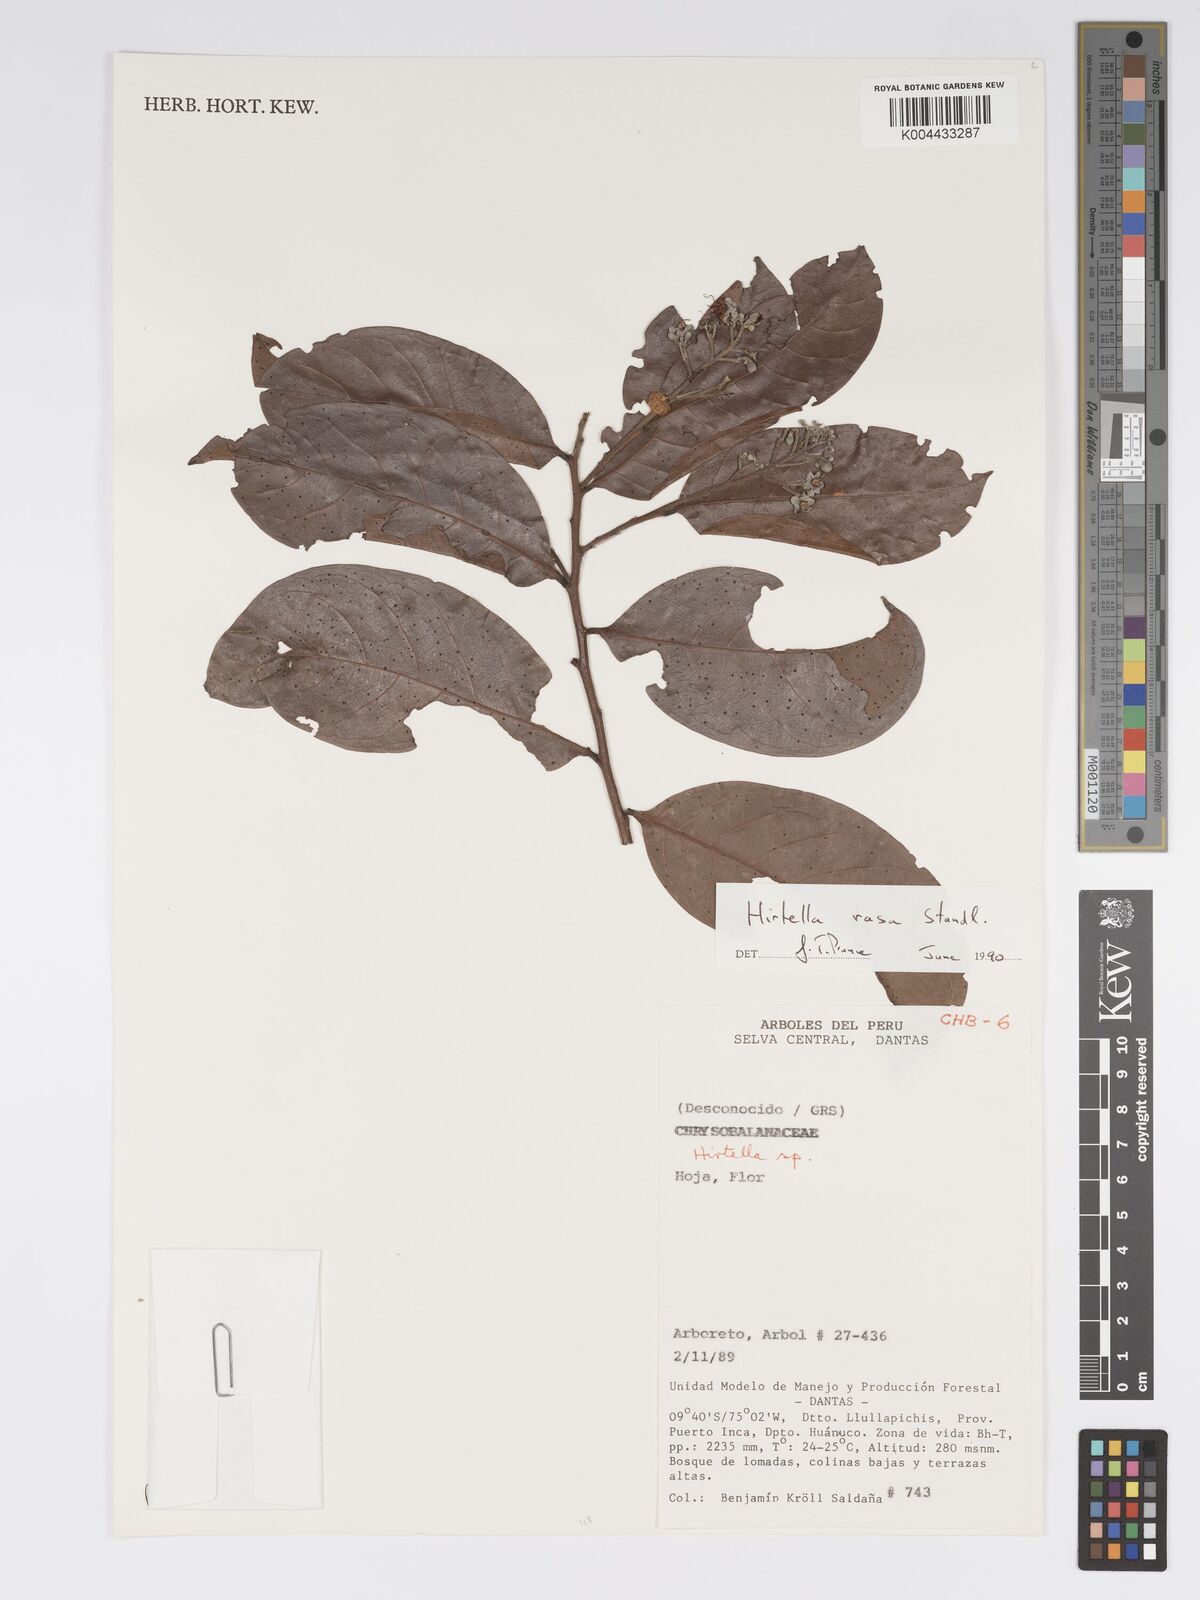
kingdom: Plantae
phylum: Tracheophyta
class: Magnoliopsida
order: Malpighiales
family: Chrysobalanaceae
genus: Hirtella
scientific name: Hirtella rasa
